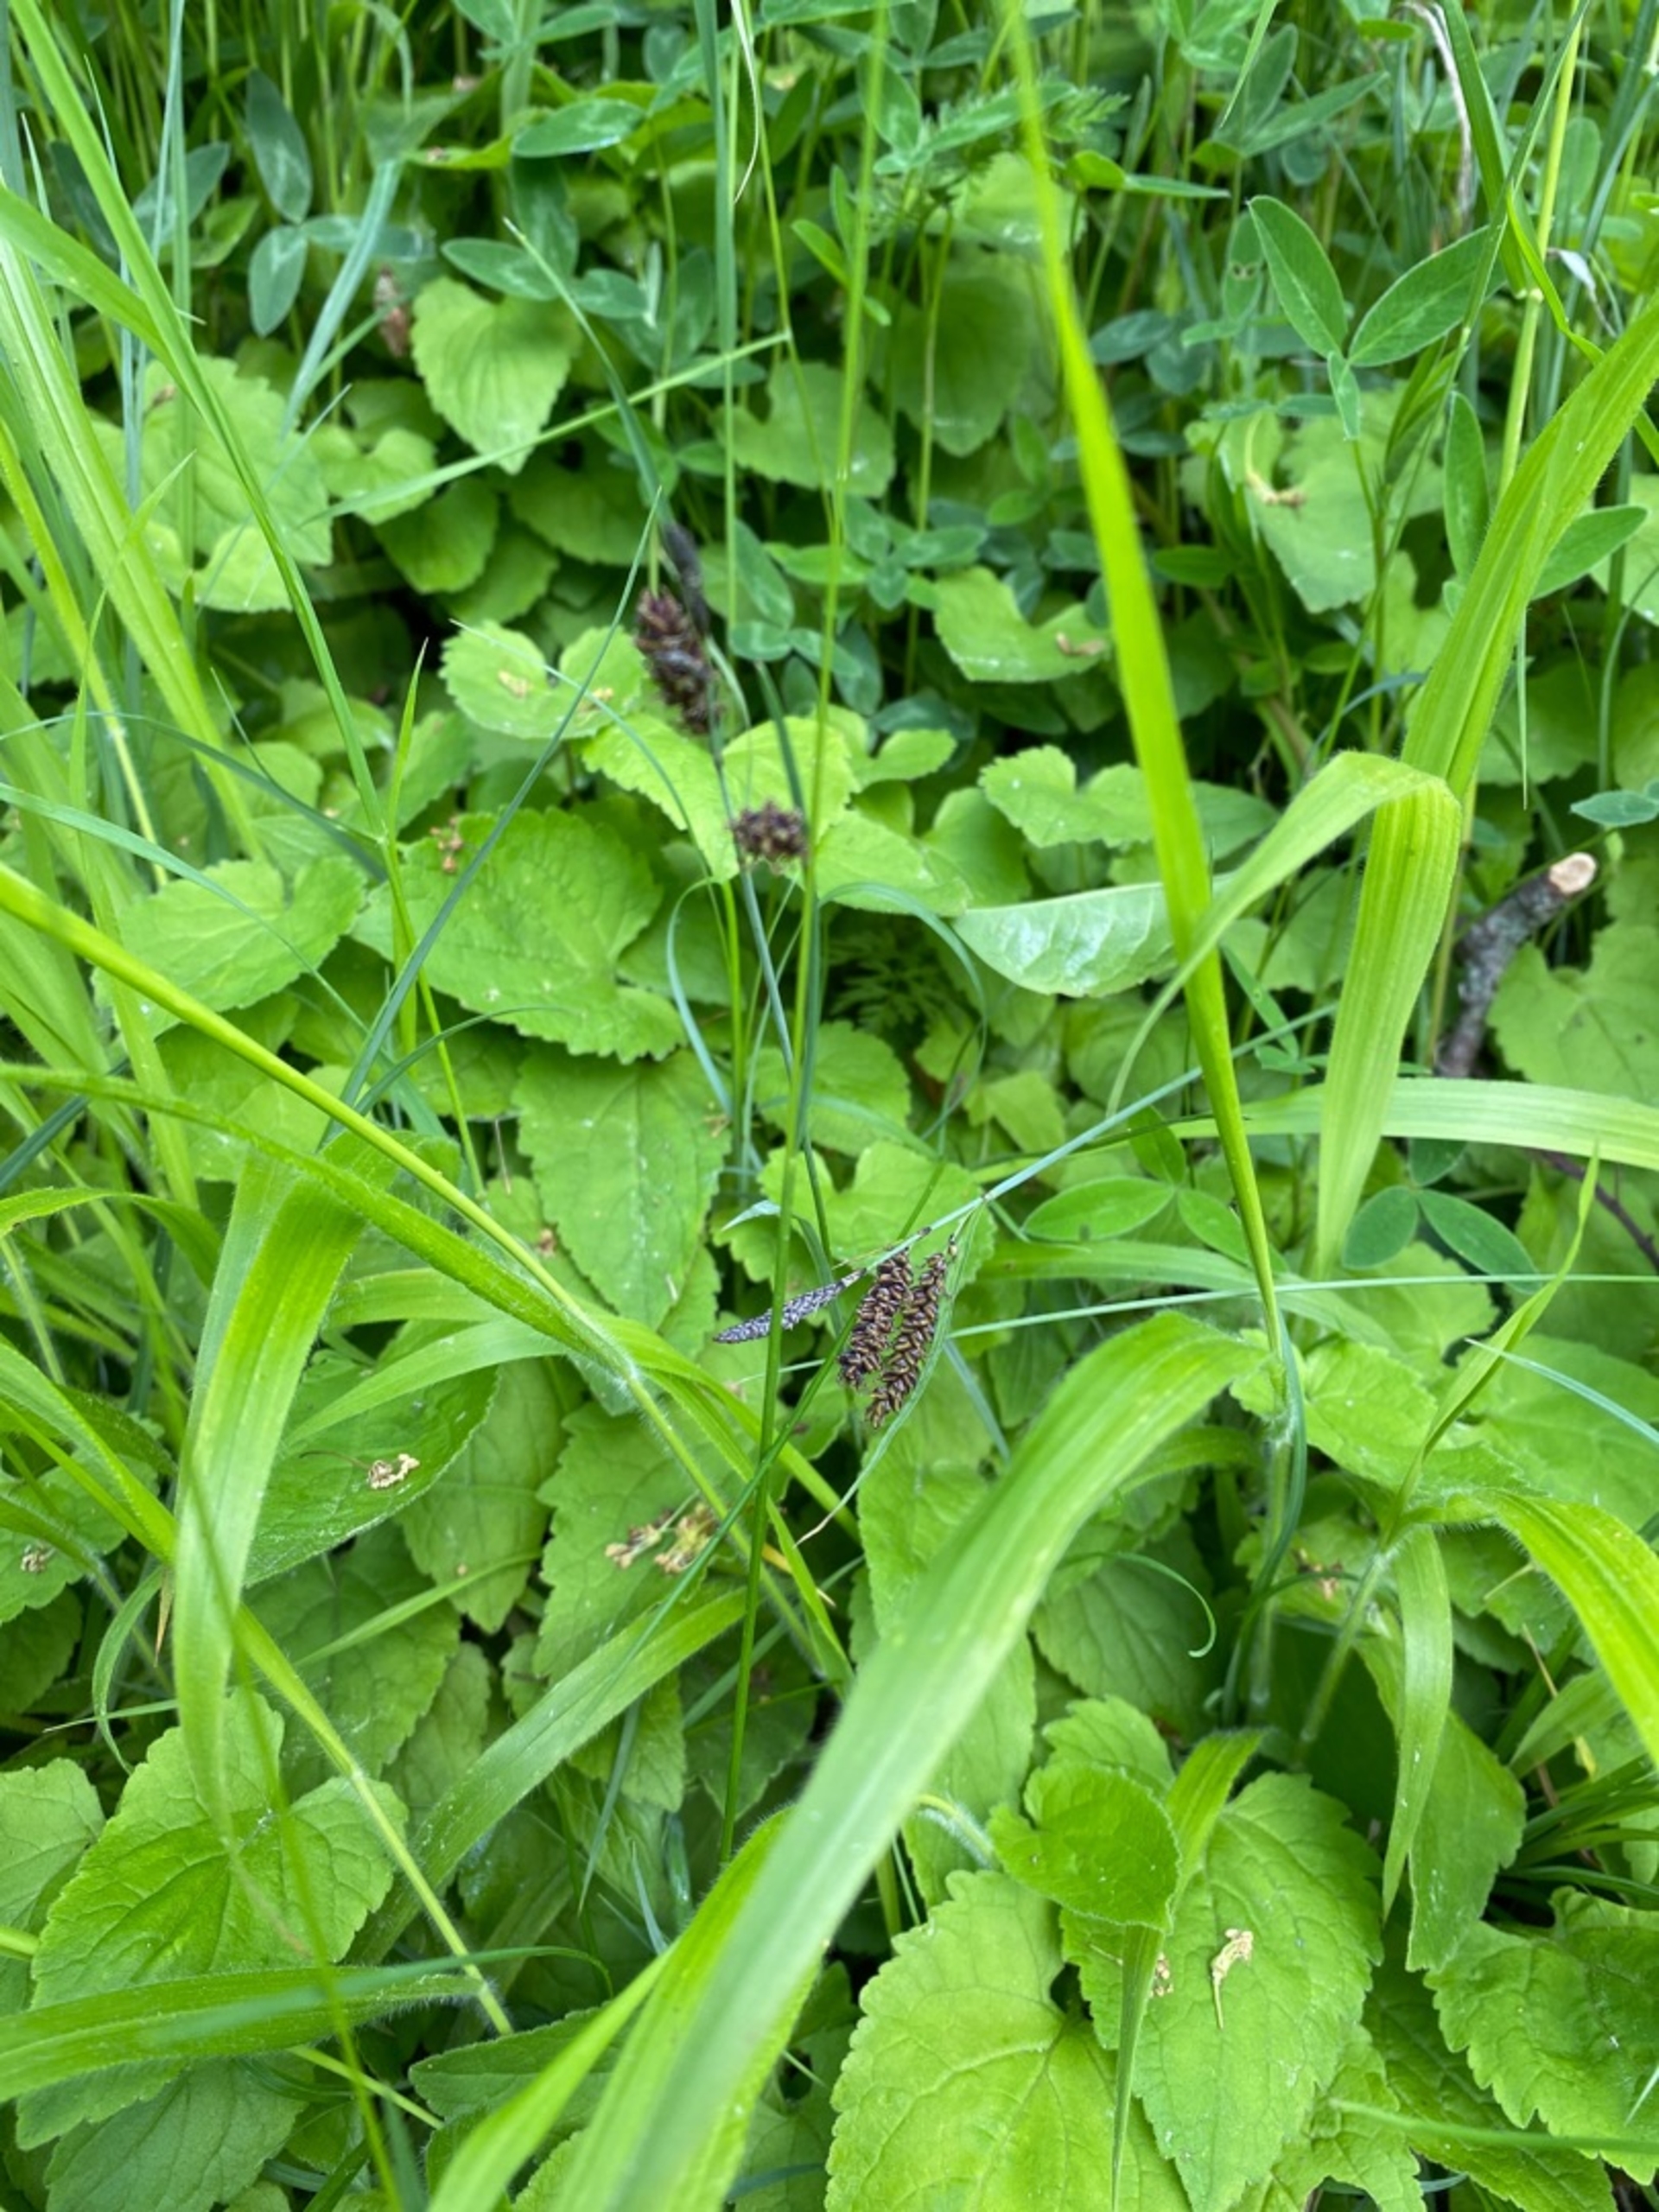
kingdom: Plantae
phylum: Tracheophyta
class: Liliopsida
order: Poales
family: Cyperaceae
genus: Carex
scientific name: Carex flacca
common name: Blågrøn star
